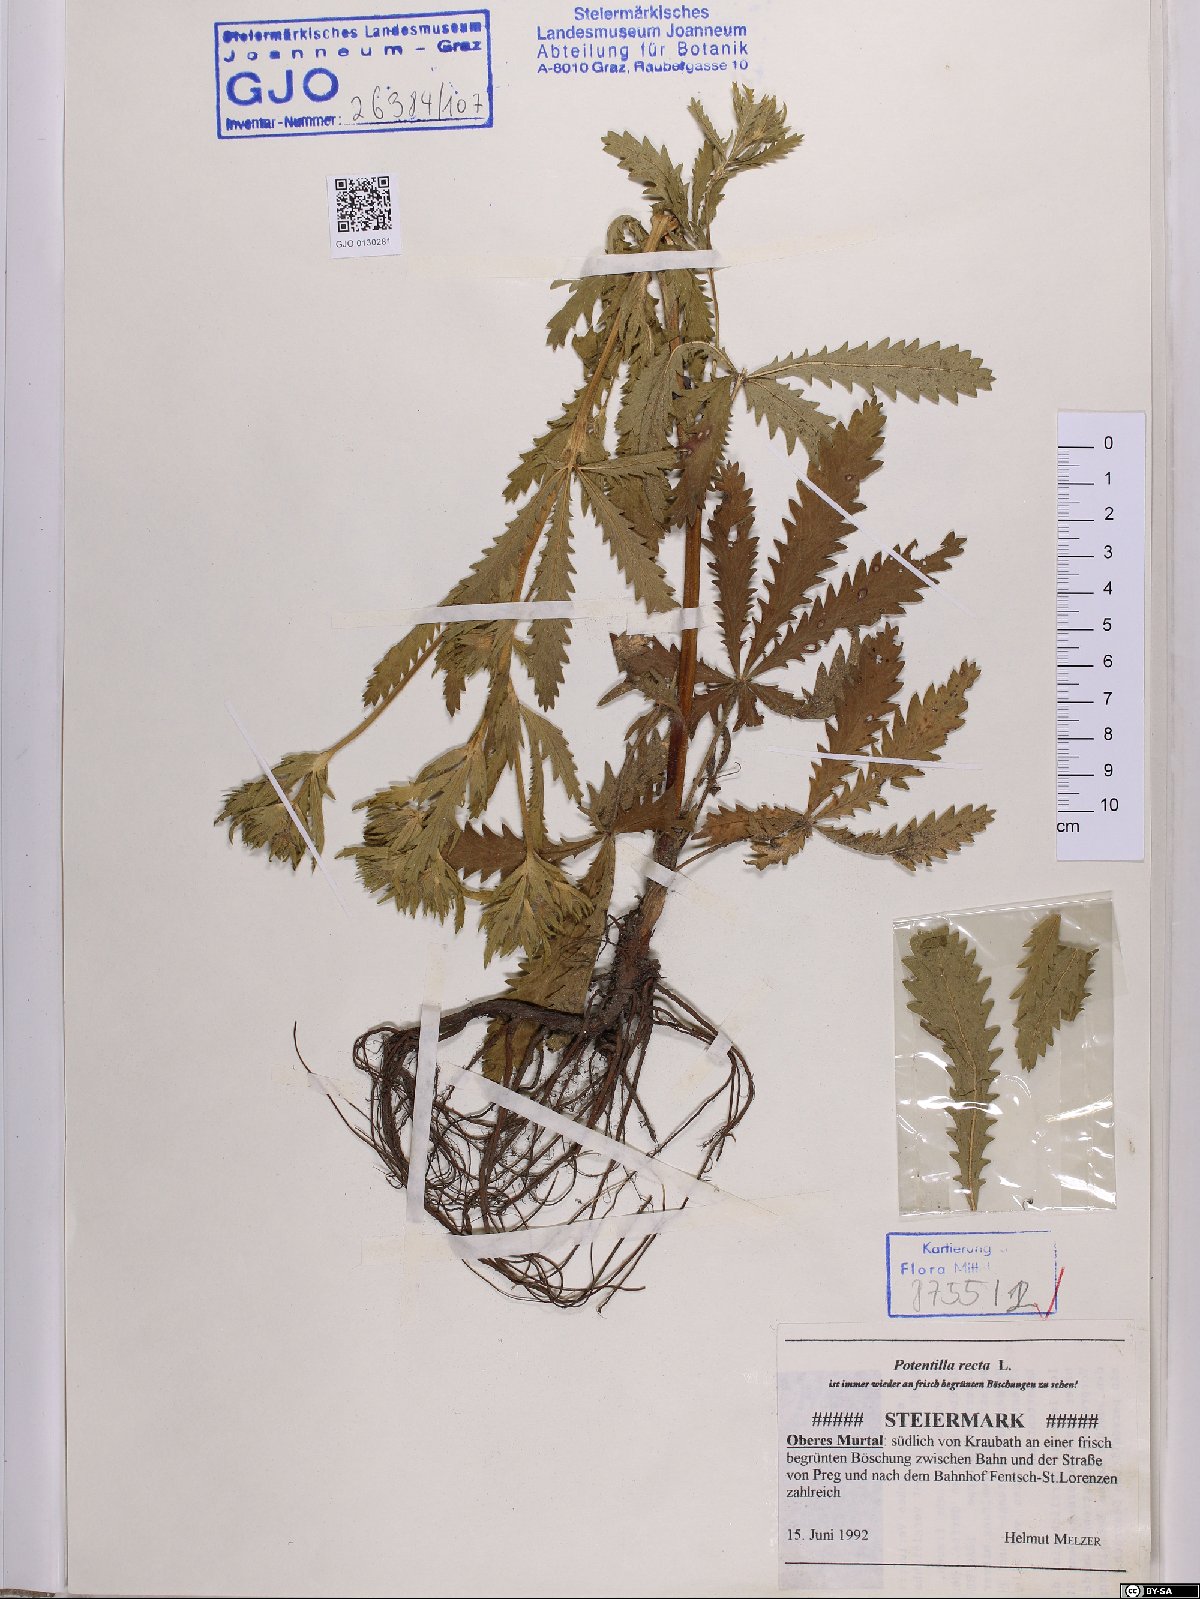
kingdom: Plantae
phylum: Tracheophyta
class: Magnoliopsida
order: Rosales
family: Rosaceae
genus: Potentilla
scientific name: Potentilla recta
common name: Sulphur cinquefoil
